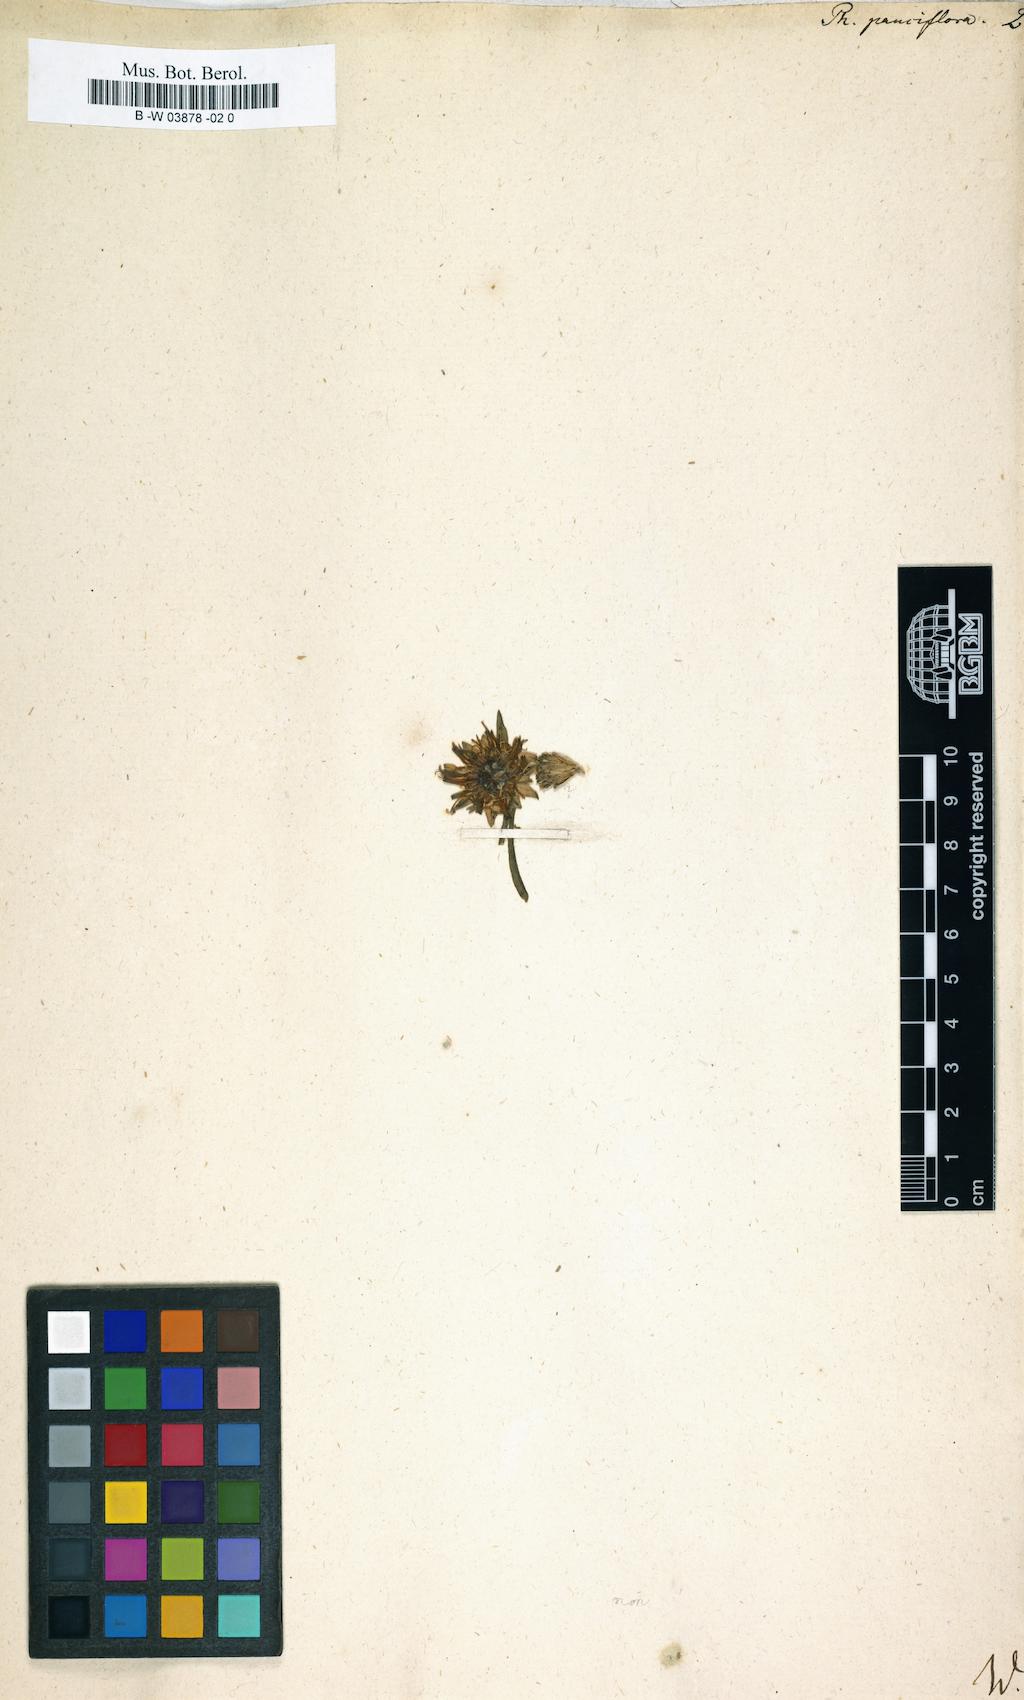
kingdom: Plantae
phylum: Tracheophyta
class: Magnoliopsida
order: Asterales
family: Campanulaceae
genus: Phyteuma
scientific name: Phyteuma globulariifolium
